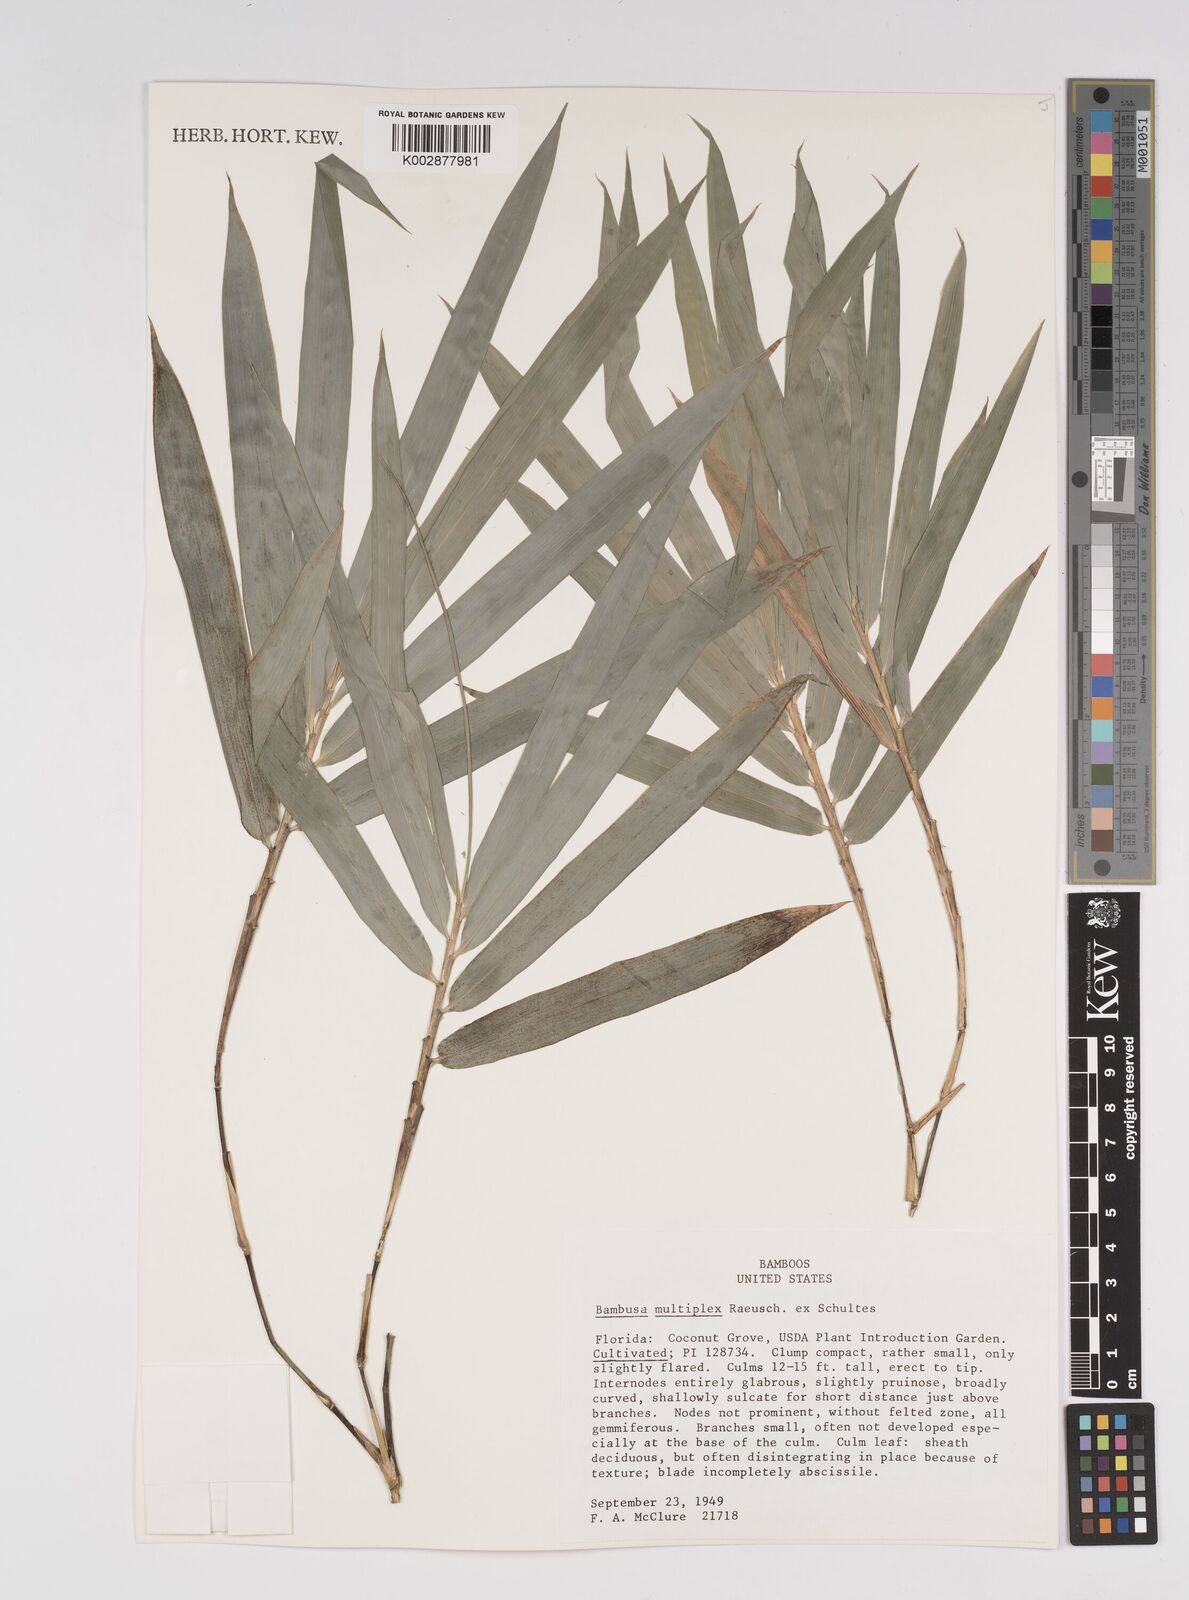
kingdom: Plantae
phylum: Tracheophyta
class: Liliopsida
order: Poales
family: Poaceae
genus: Bambusa
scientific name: Bambusa
